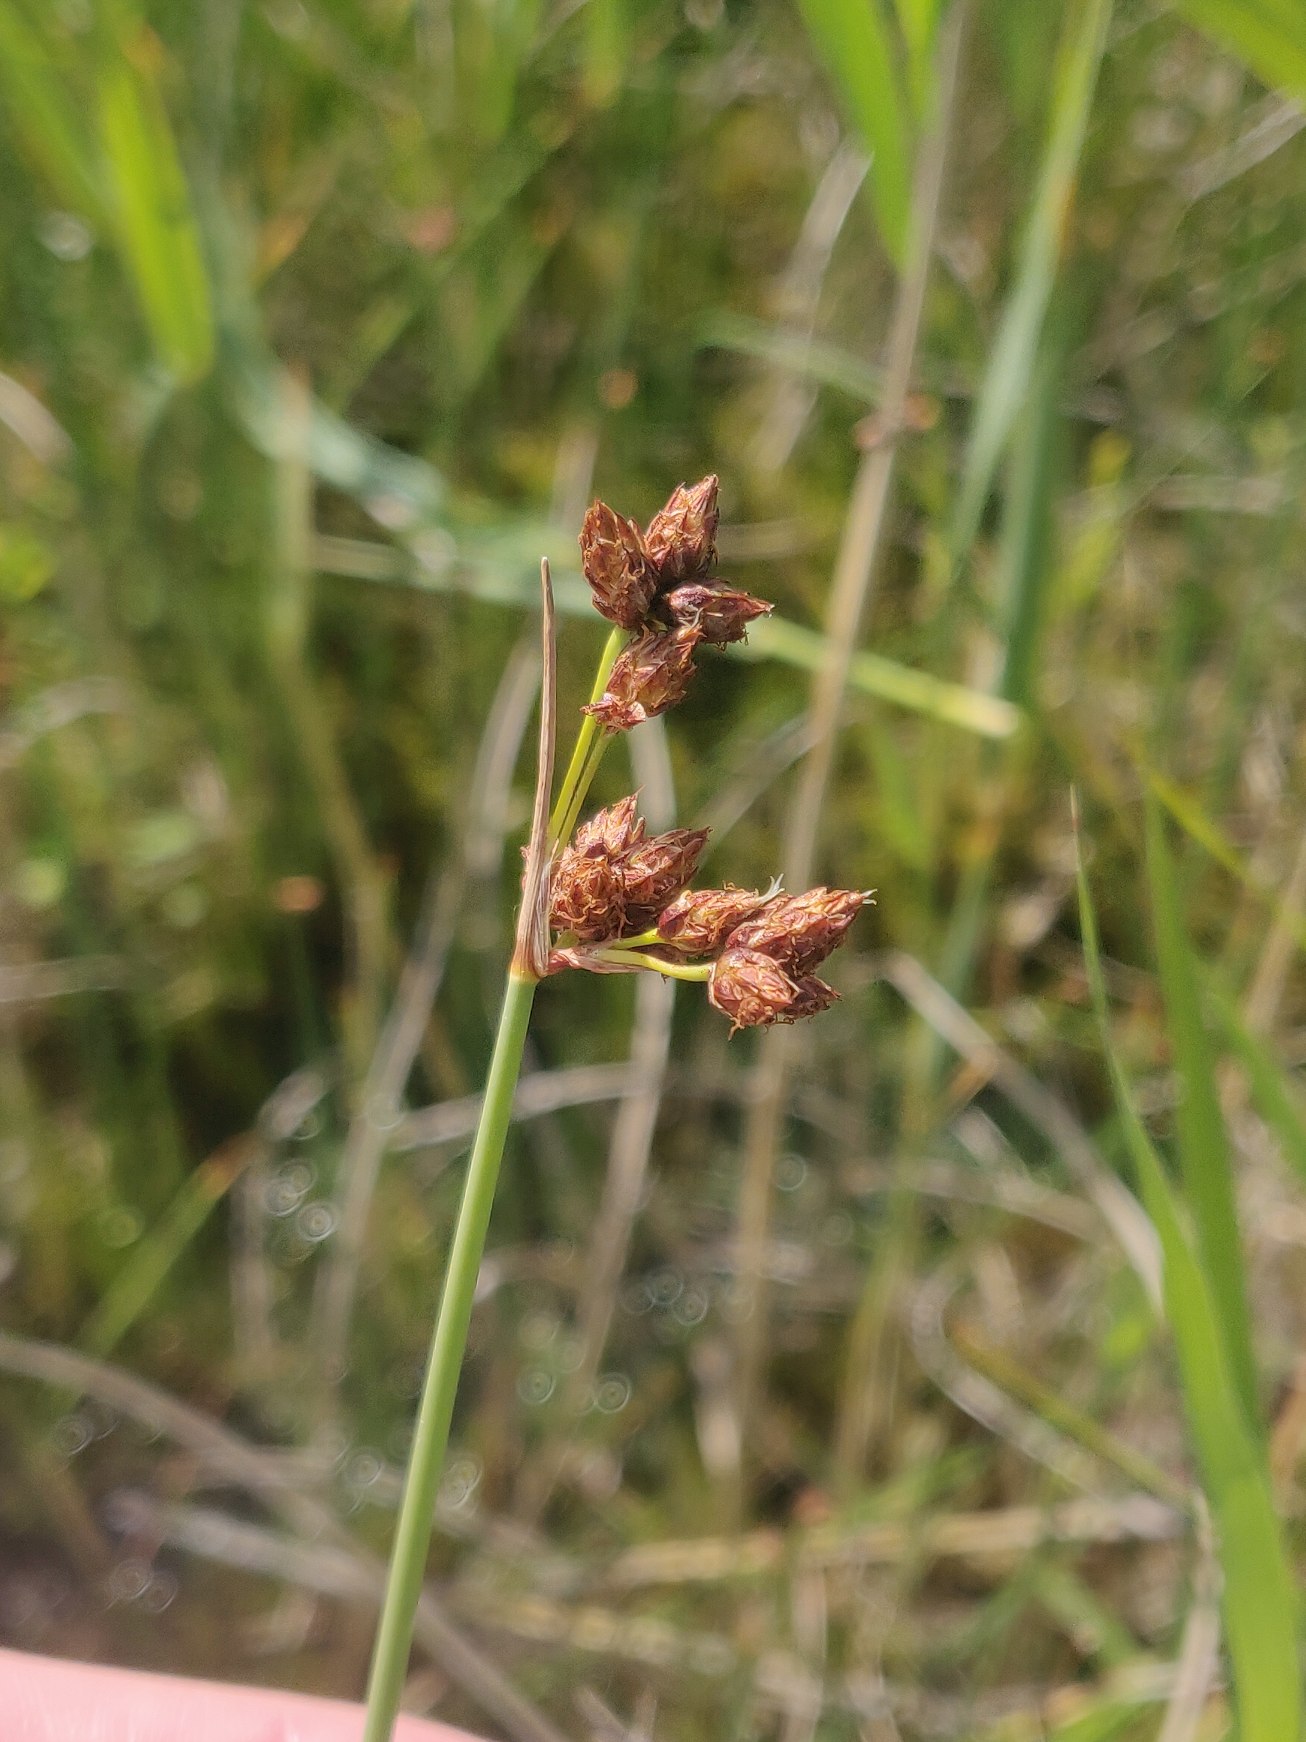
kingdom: Plantae
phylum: Tracheophyta
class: Liliopsida
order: Poales
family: Cyperaceae
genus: Schoenoplectus
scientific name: Schoenoplectus tabernaemontani
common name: Blågrøn kogleaks
